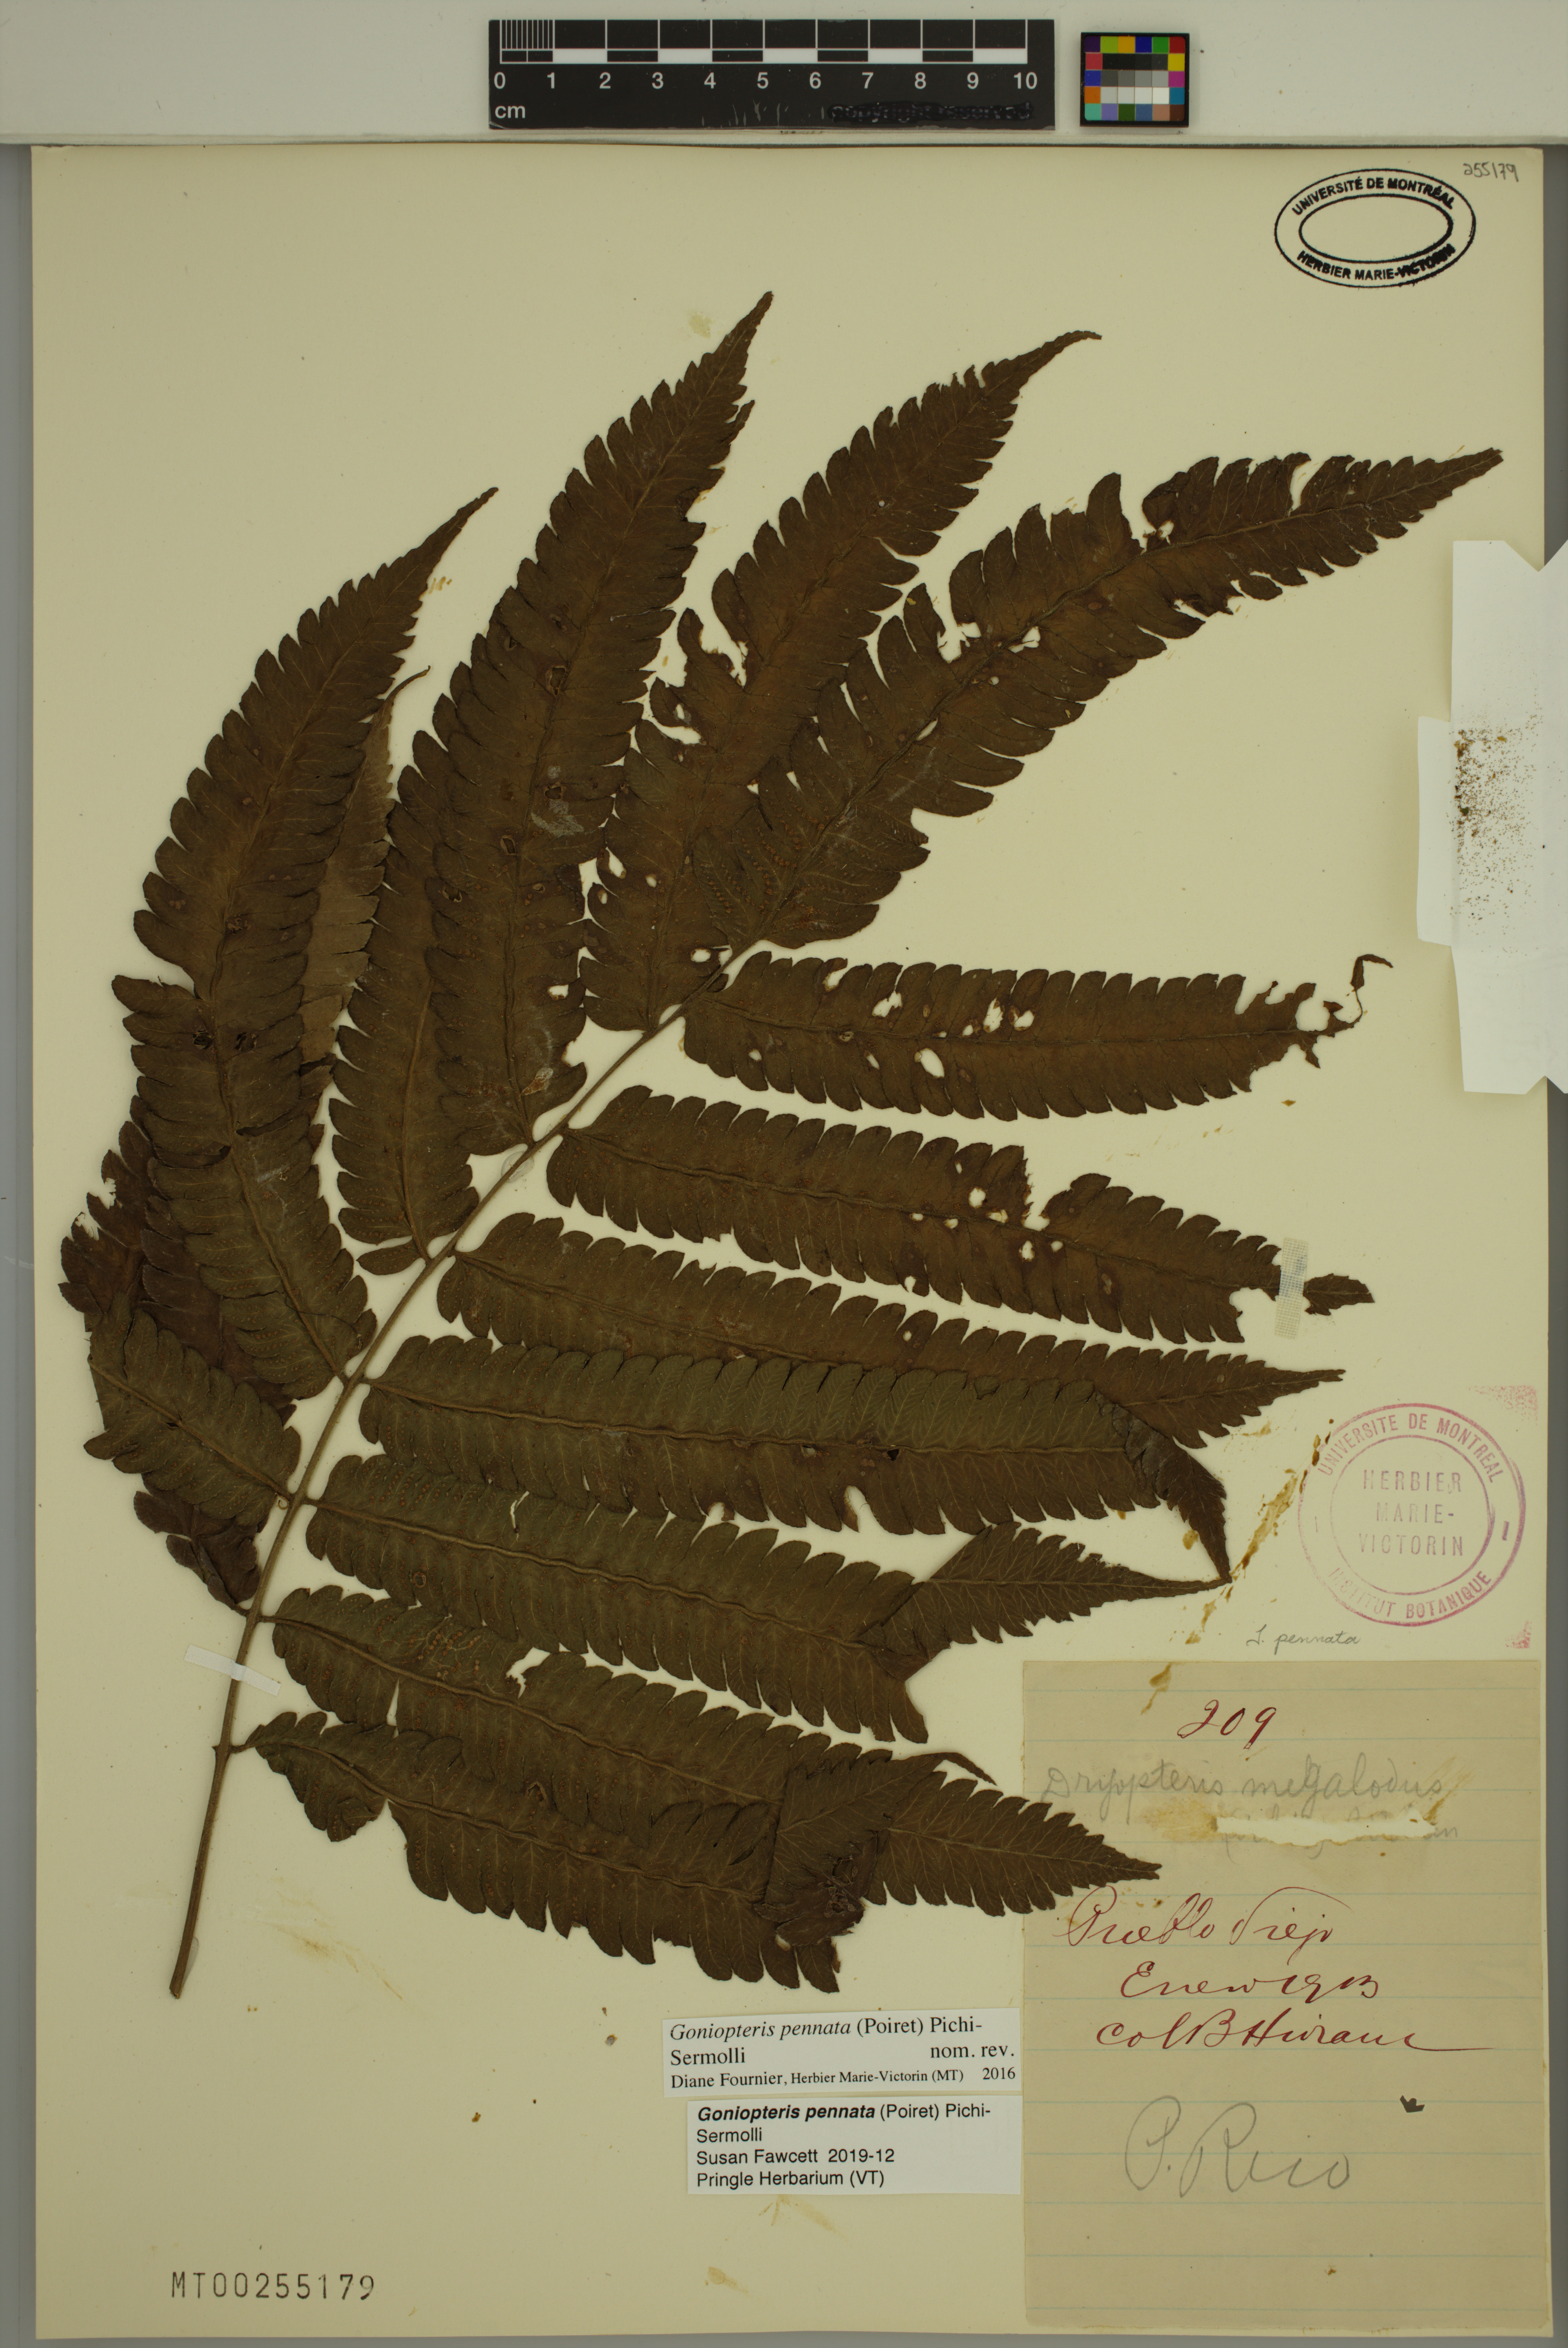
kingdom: Plantae
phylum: Tracheophyta
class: Polypodiopsida
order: Polypodiales
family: Thelypteridaceae
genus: Goniopteris
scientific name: Goniopteris pennata
